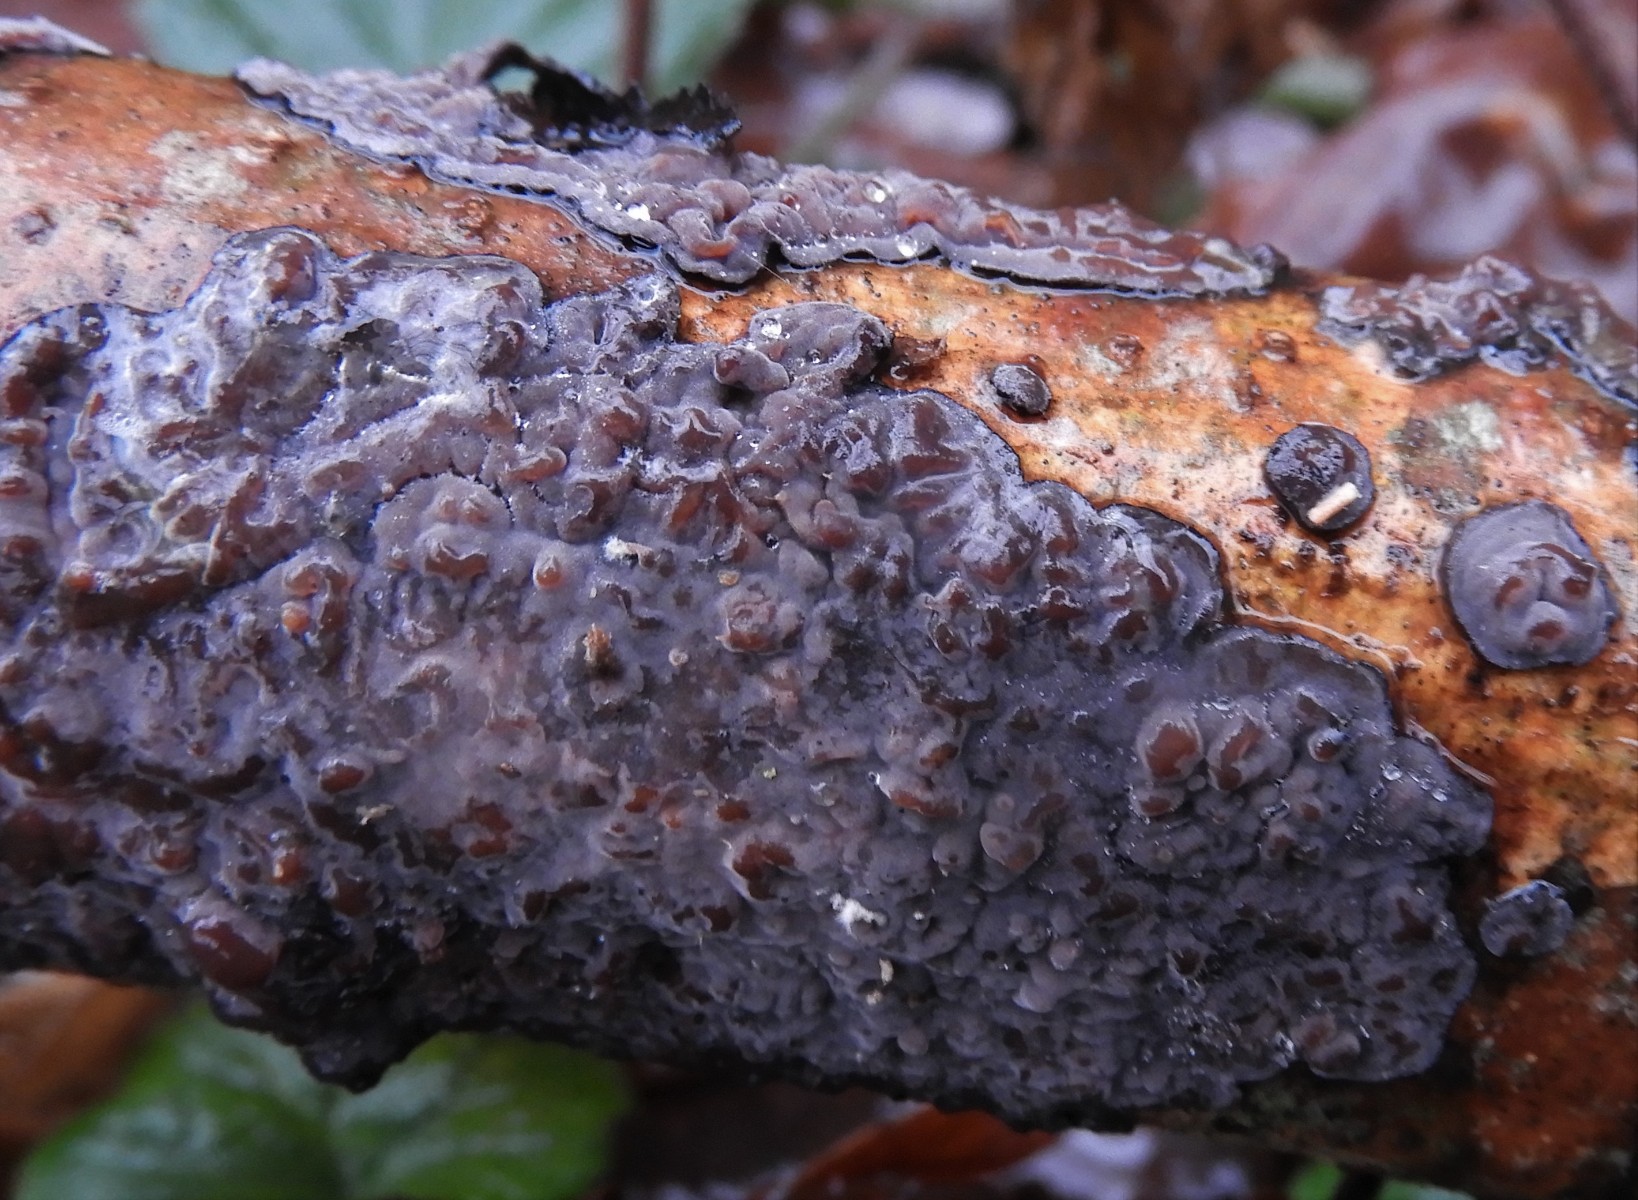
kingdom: Fungi
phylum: Basidiomycota
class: Agaricomycetes
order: Russulales
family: Peniophoraceae
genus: Peniophora
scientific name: Peniophora quercina
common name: ege-voksskind
